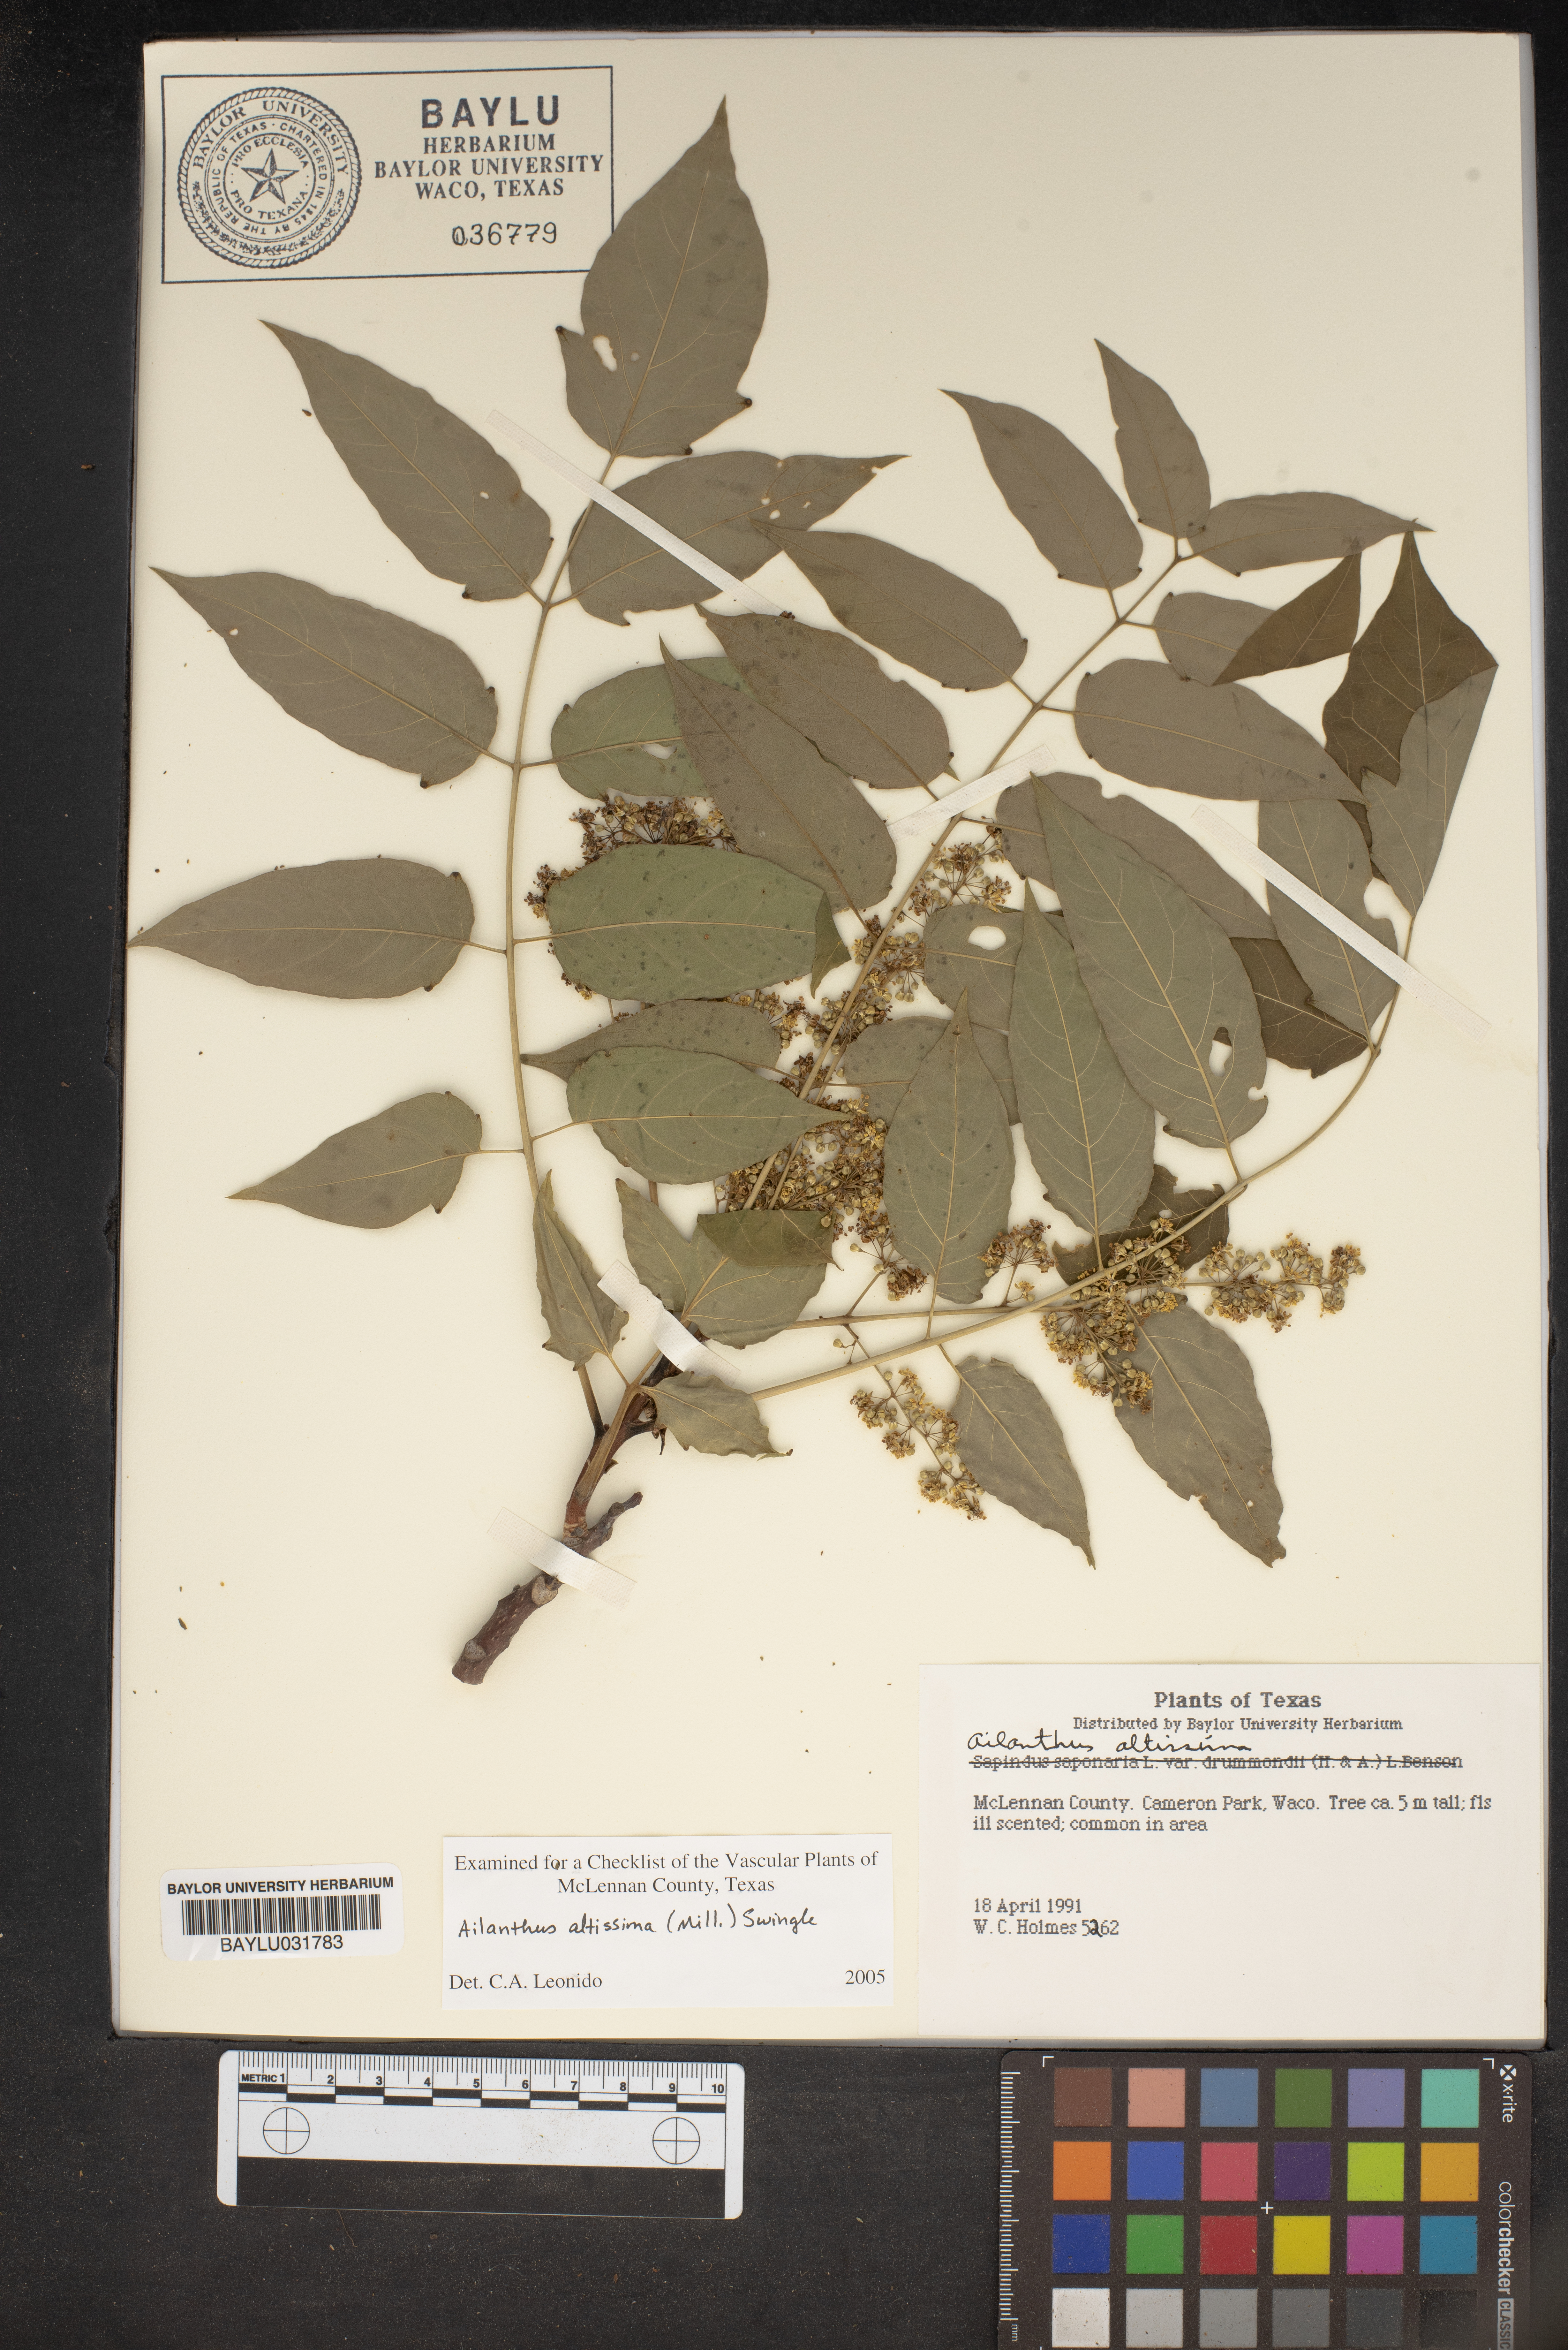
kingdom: Plantae
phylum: Tracheophyta
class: Magnoliopsida
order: Sapindales
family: Simaroubaceae
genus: Ailanthus
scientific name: Ailanthus altissima
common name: Tree-of-heaven
